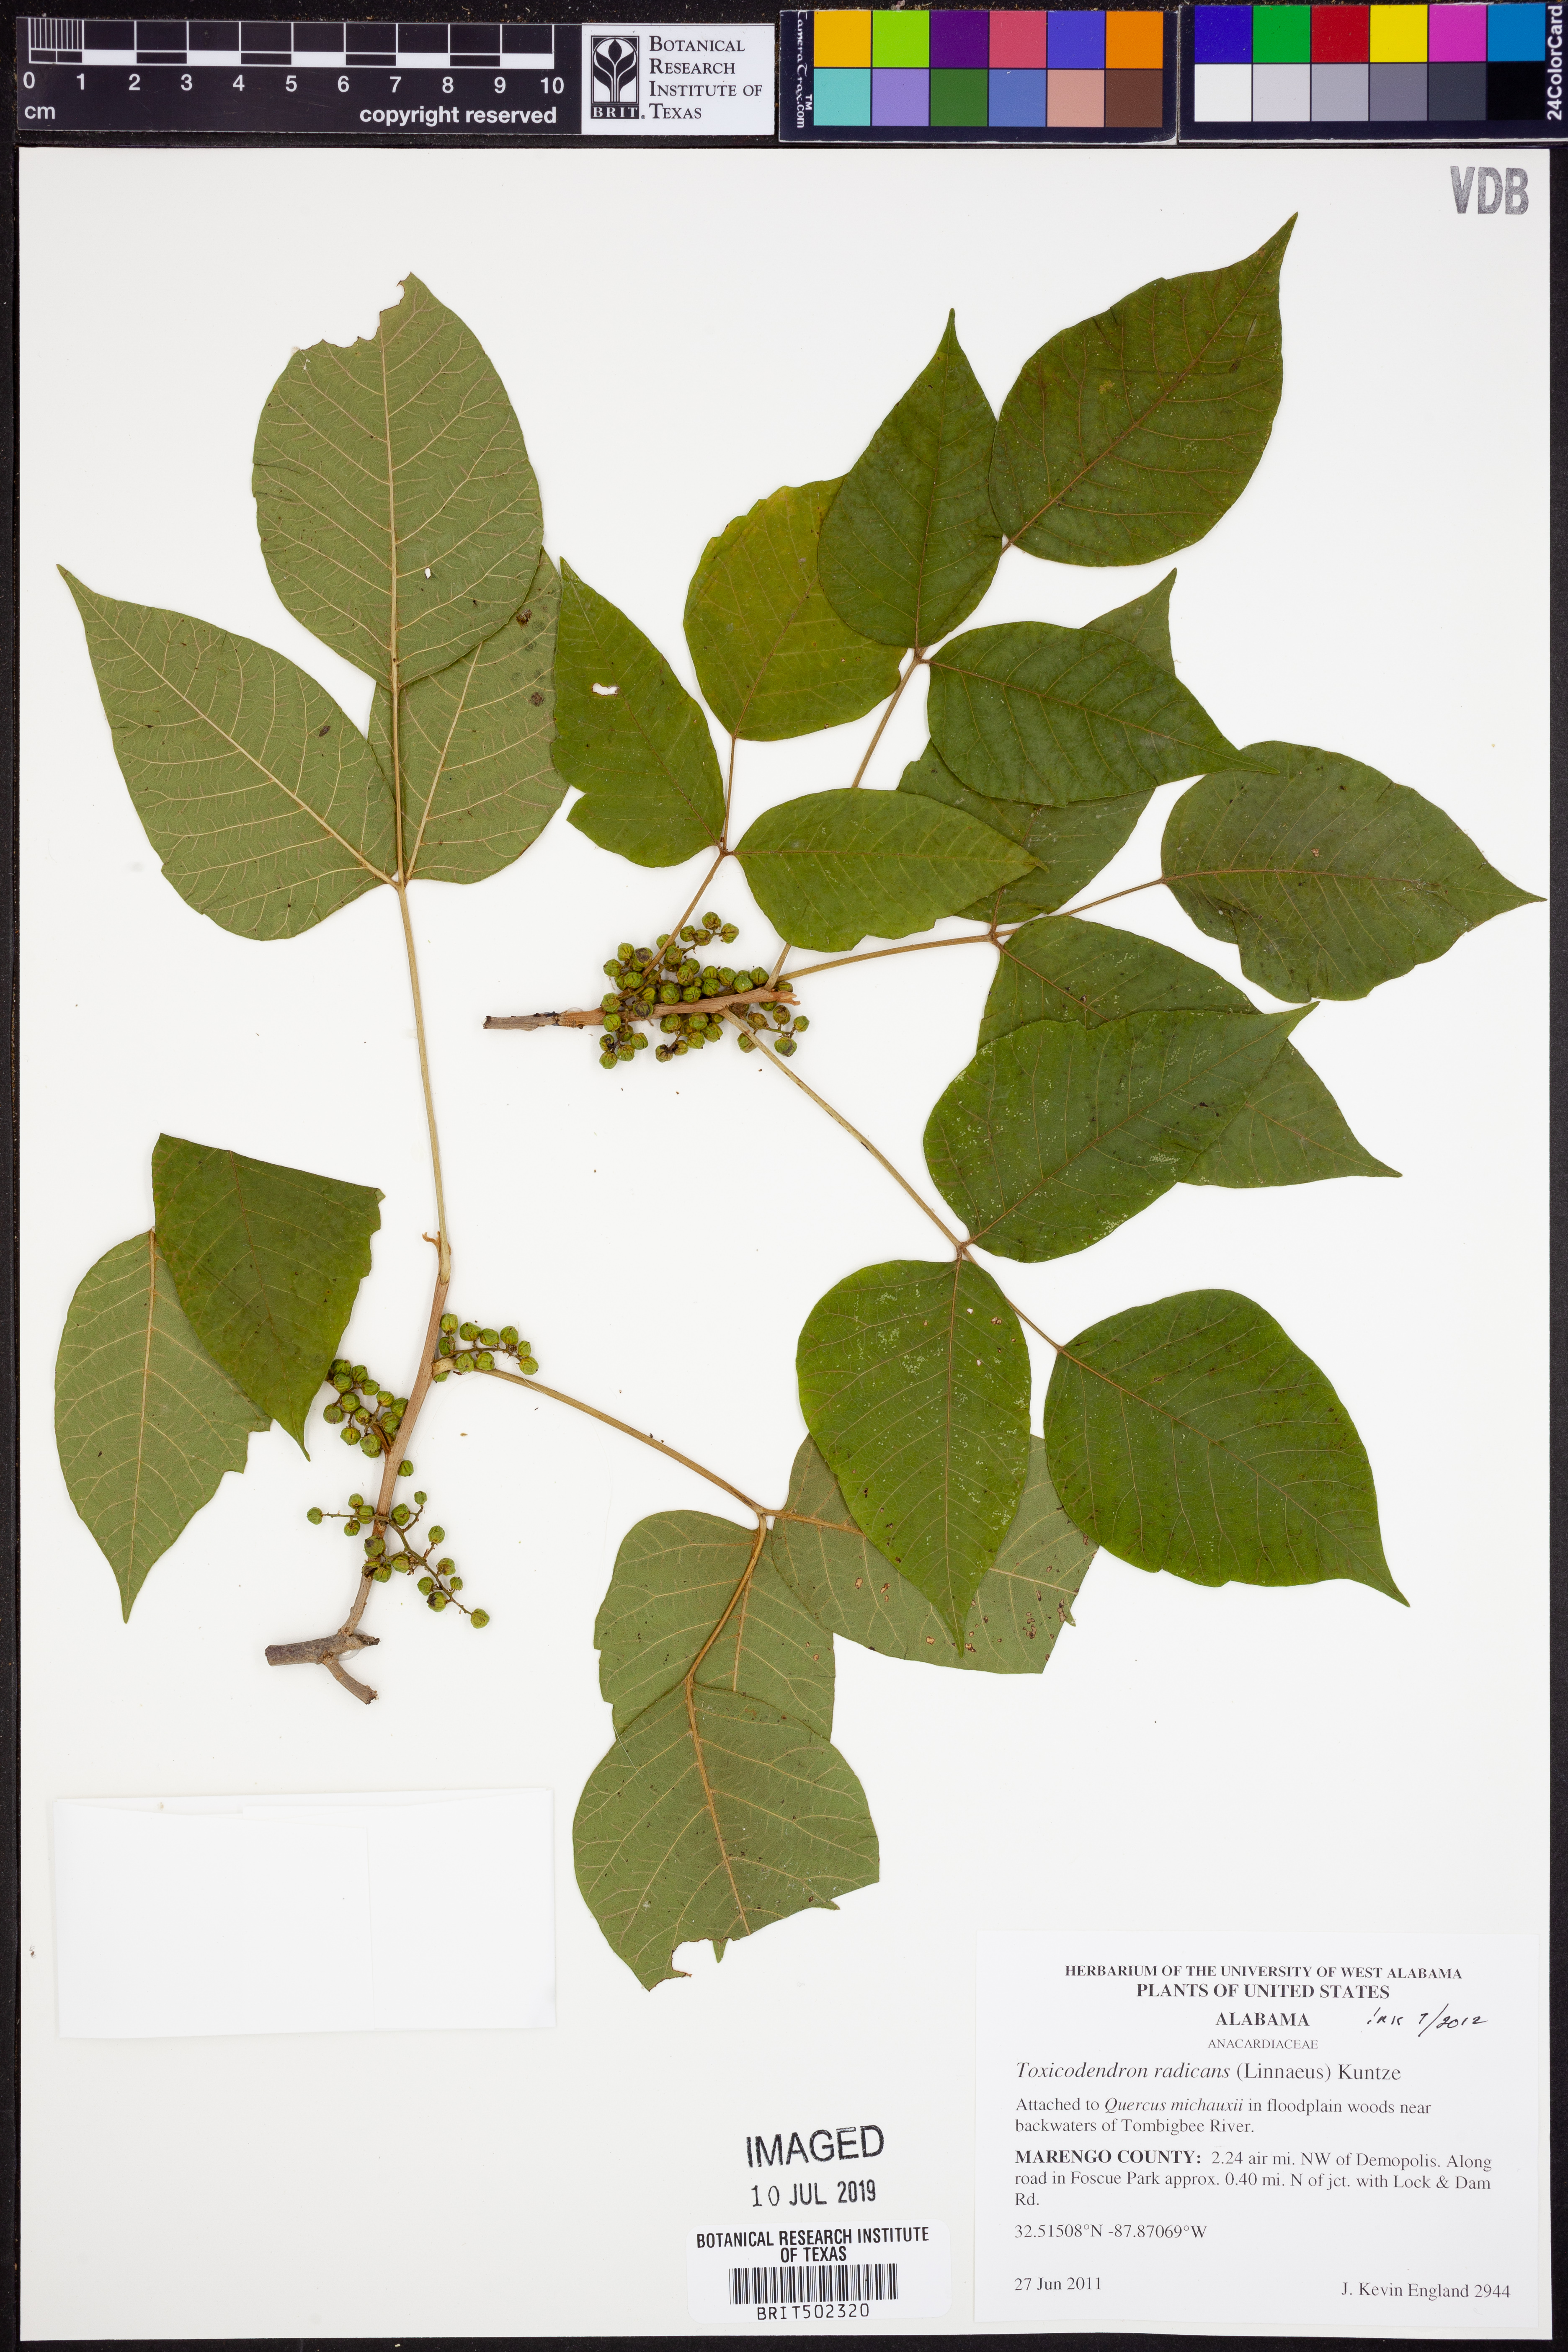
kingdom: Plantae
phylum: Tracheophyta
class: Magnoliopsida
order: Sapindales
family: Anacardiaceae
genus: Toxicodendron
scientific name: Toxicodendron radicans
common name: Poison ivy
